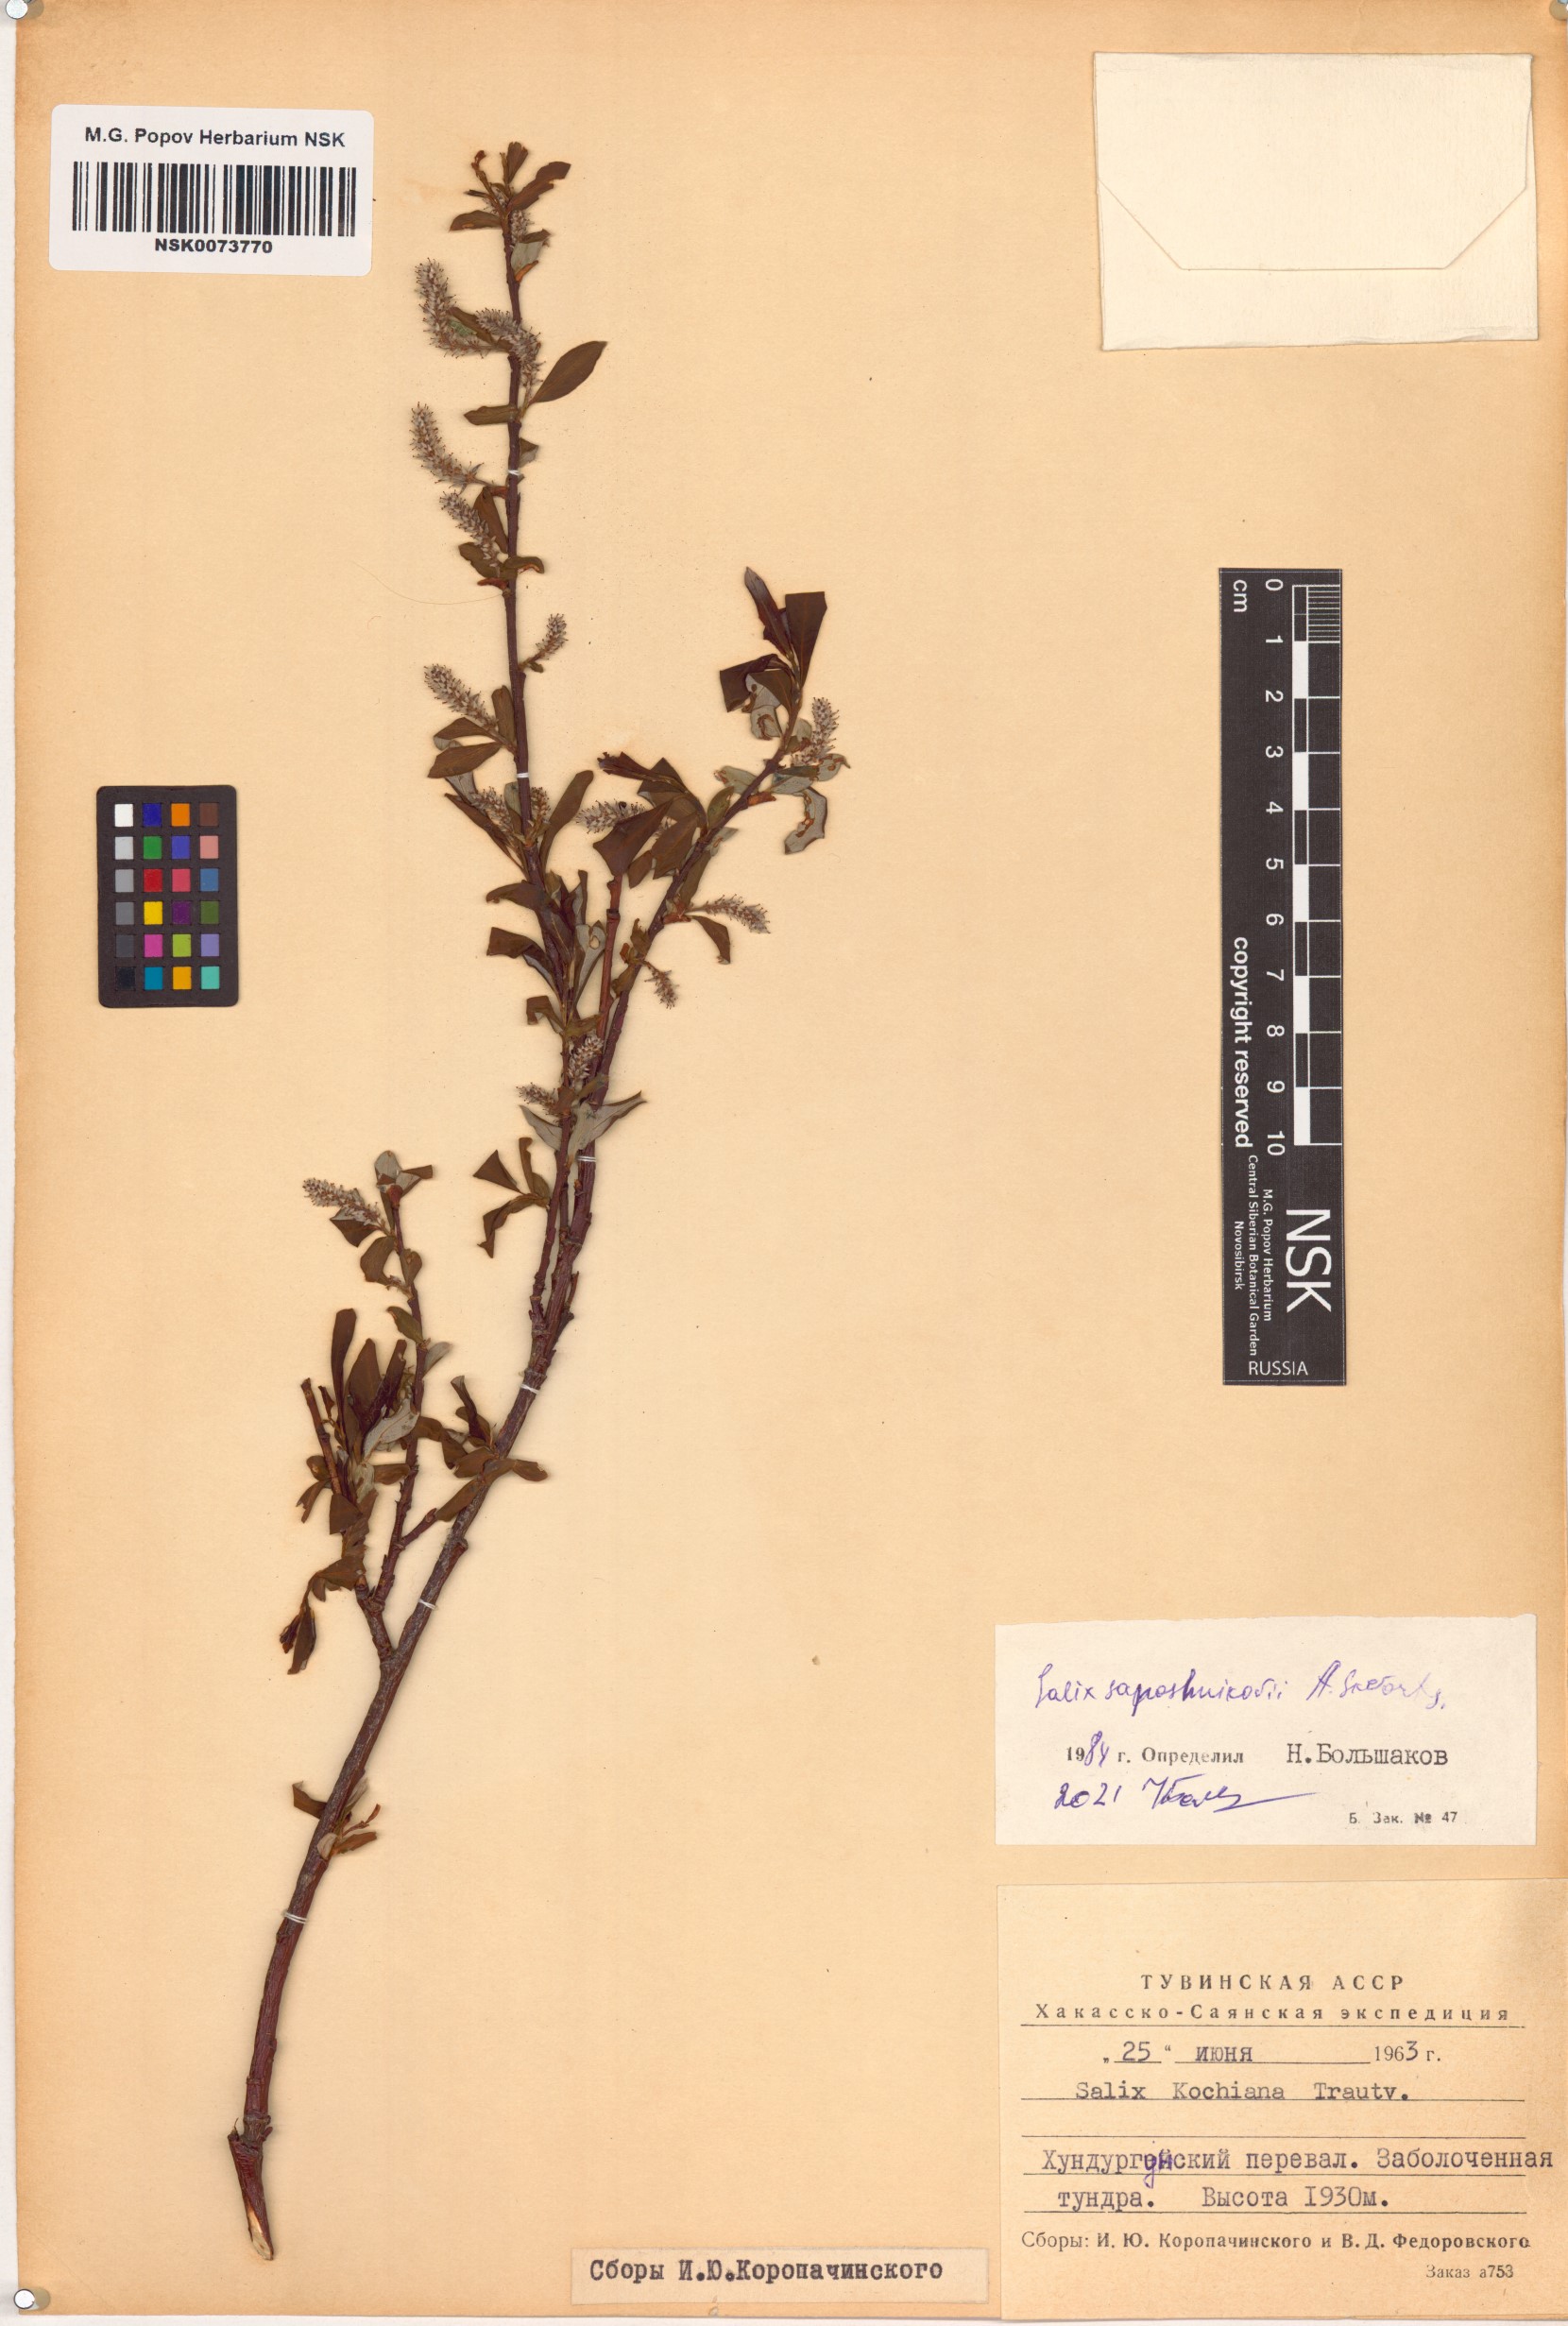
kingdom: Plantae
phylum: Tracheophyta
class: Magnoliopsida
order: Malpighiales
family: Salicaceae
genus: Salix
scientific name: Salix saposhnikovii
